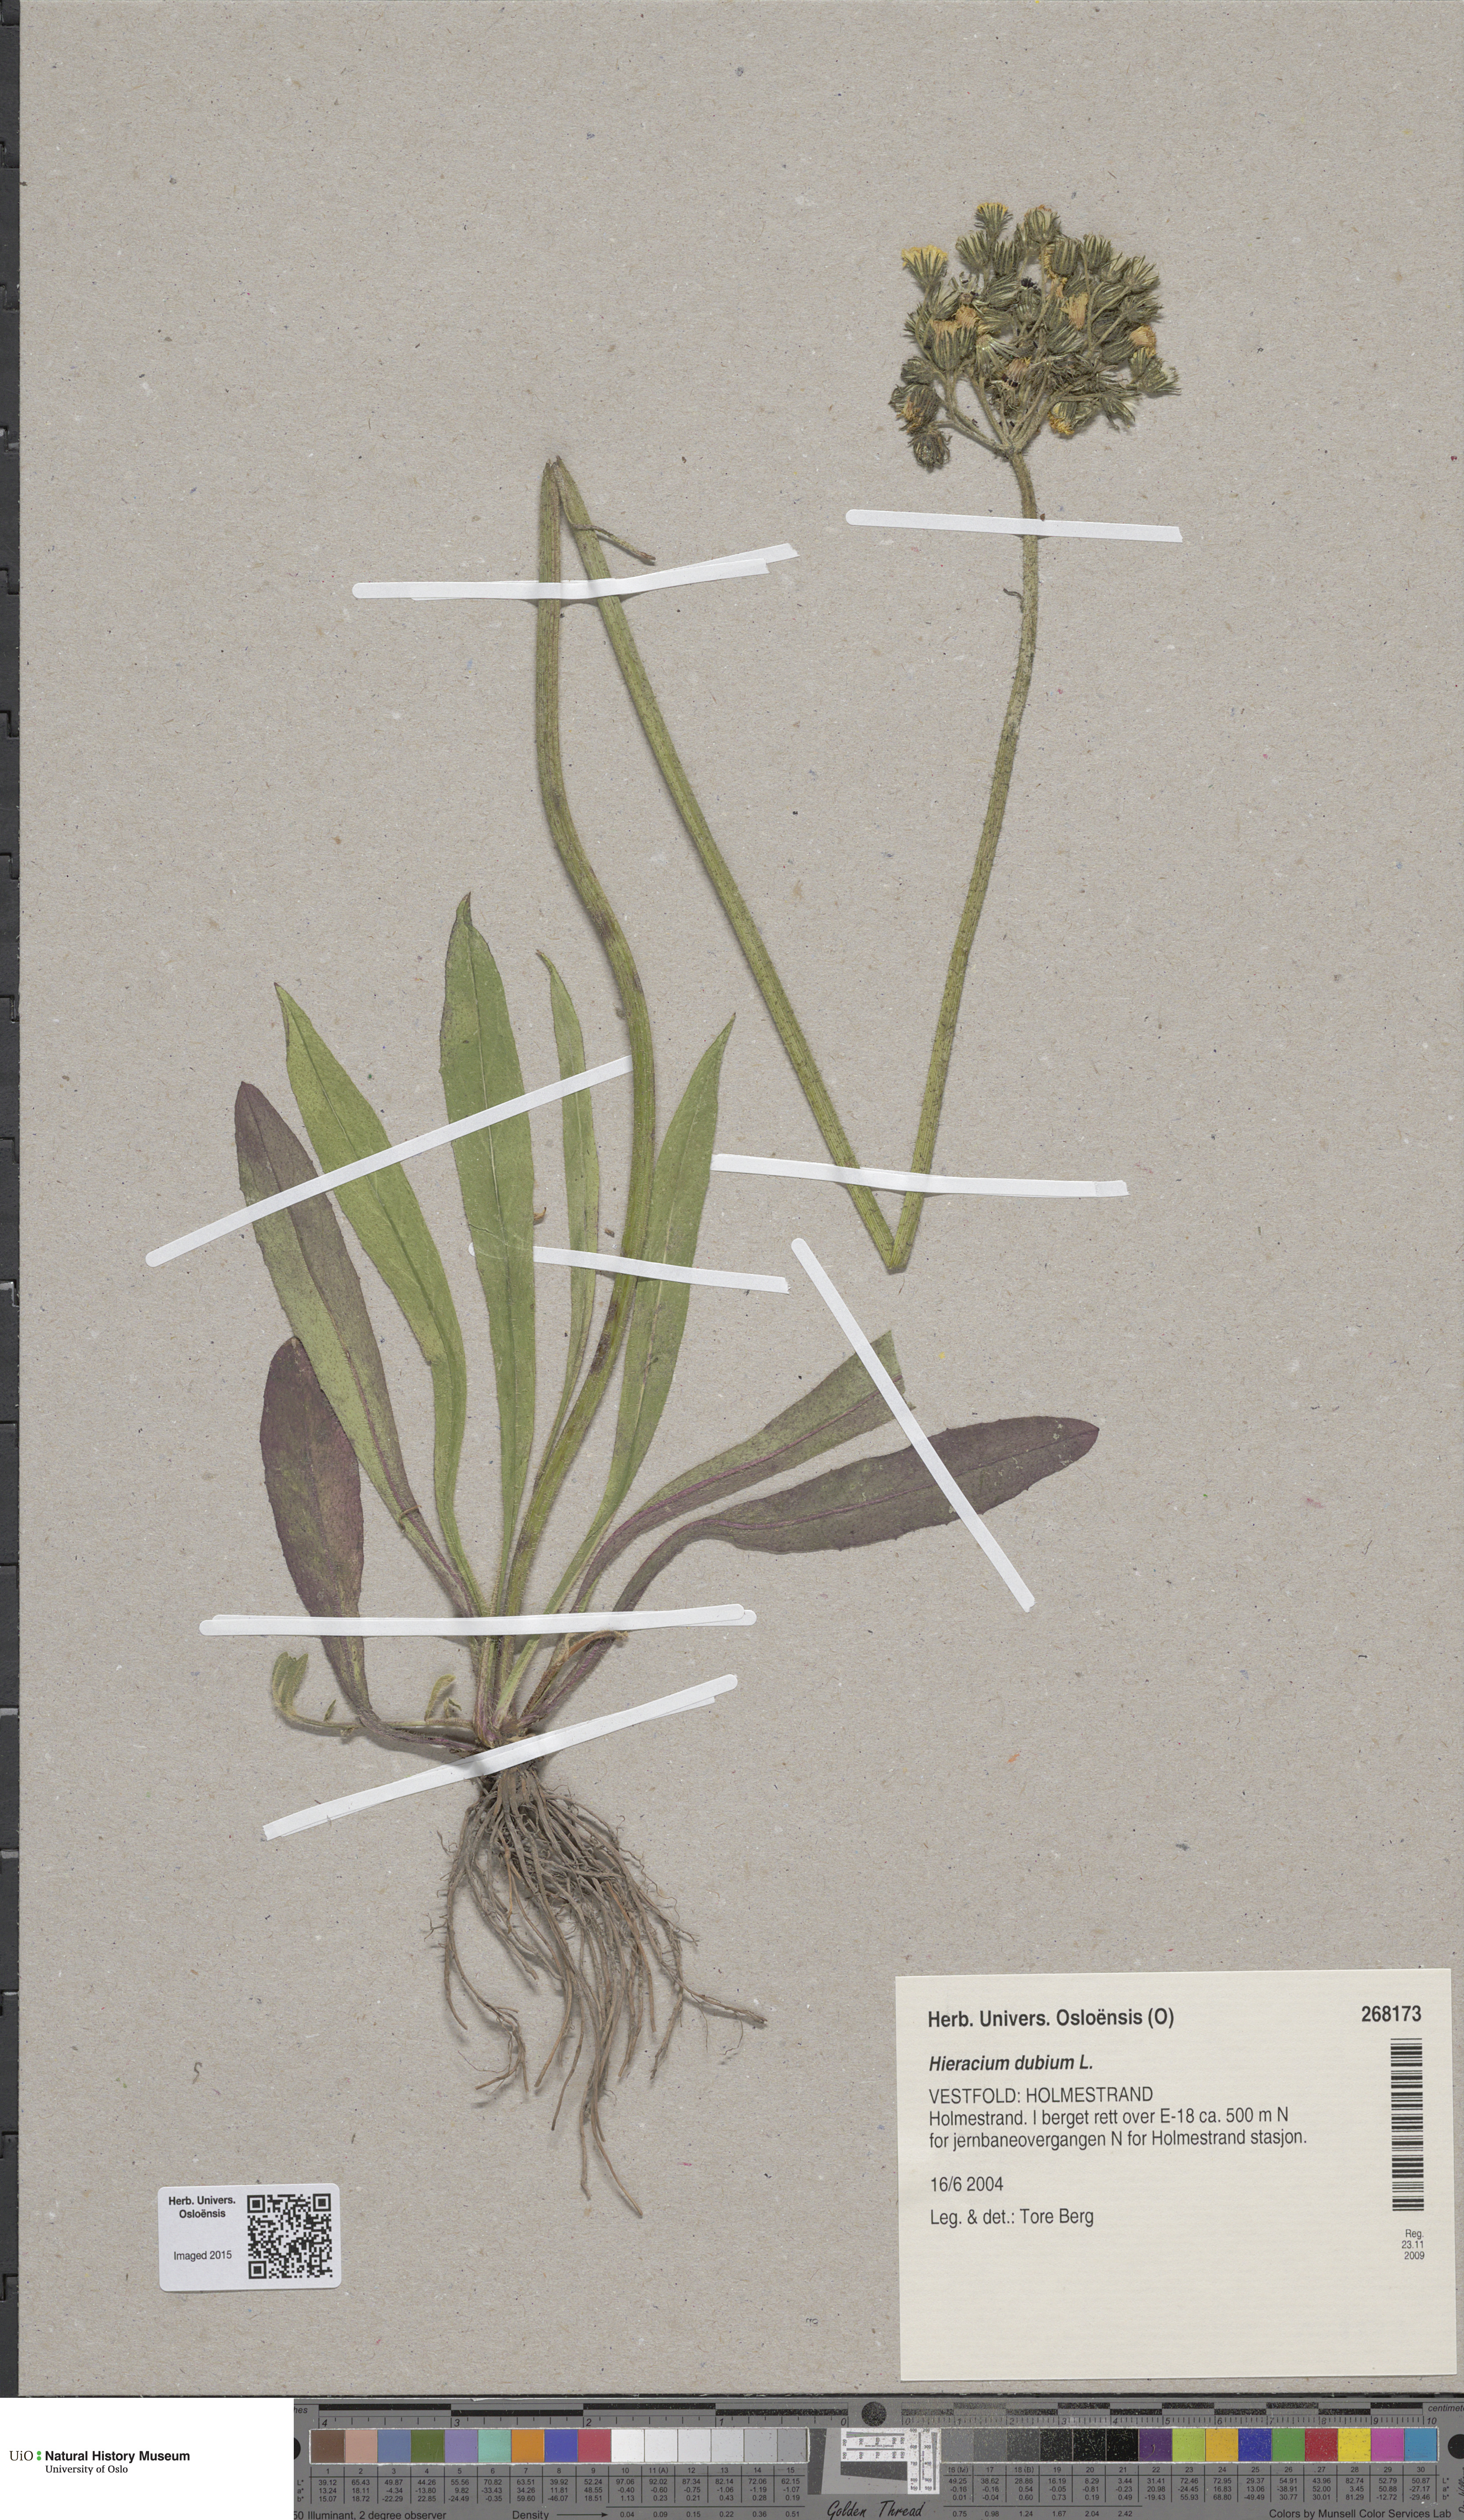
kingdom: Plantae
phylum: Tracheophyta
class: Magnoliopsida
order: Asterales
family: Asteraceae
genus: Pilosella
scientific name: Pilosella dubia
